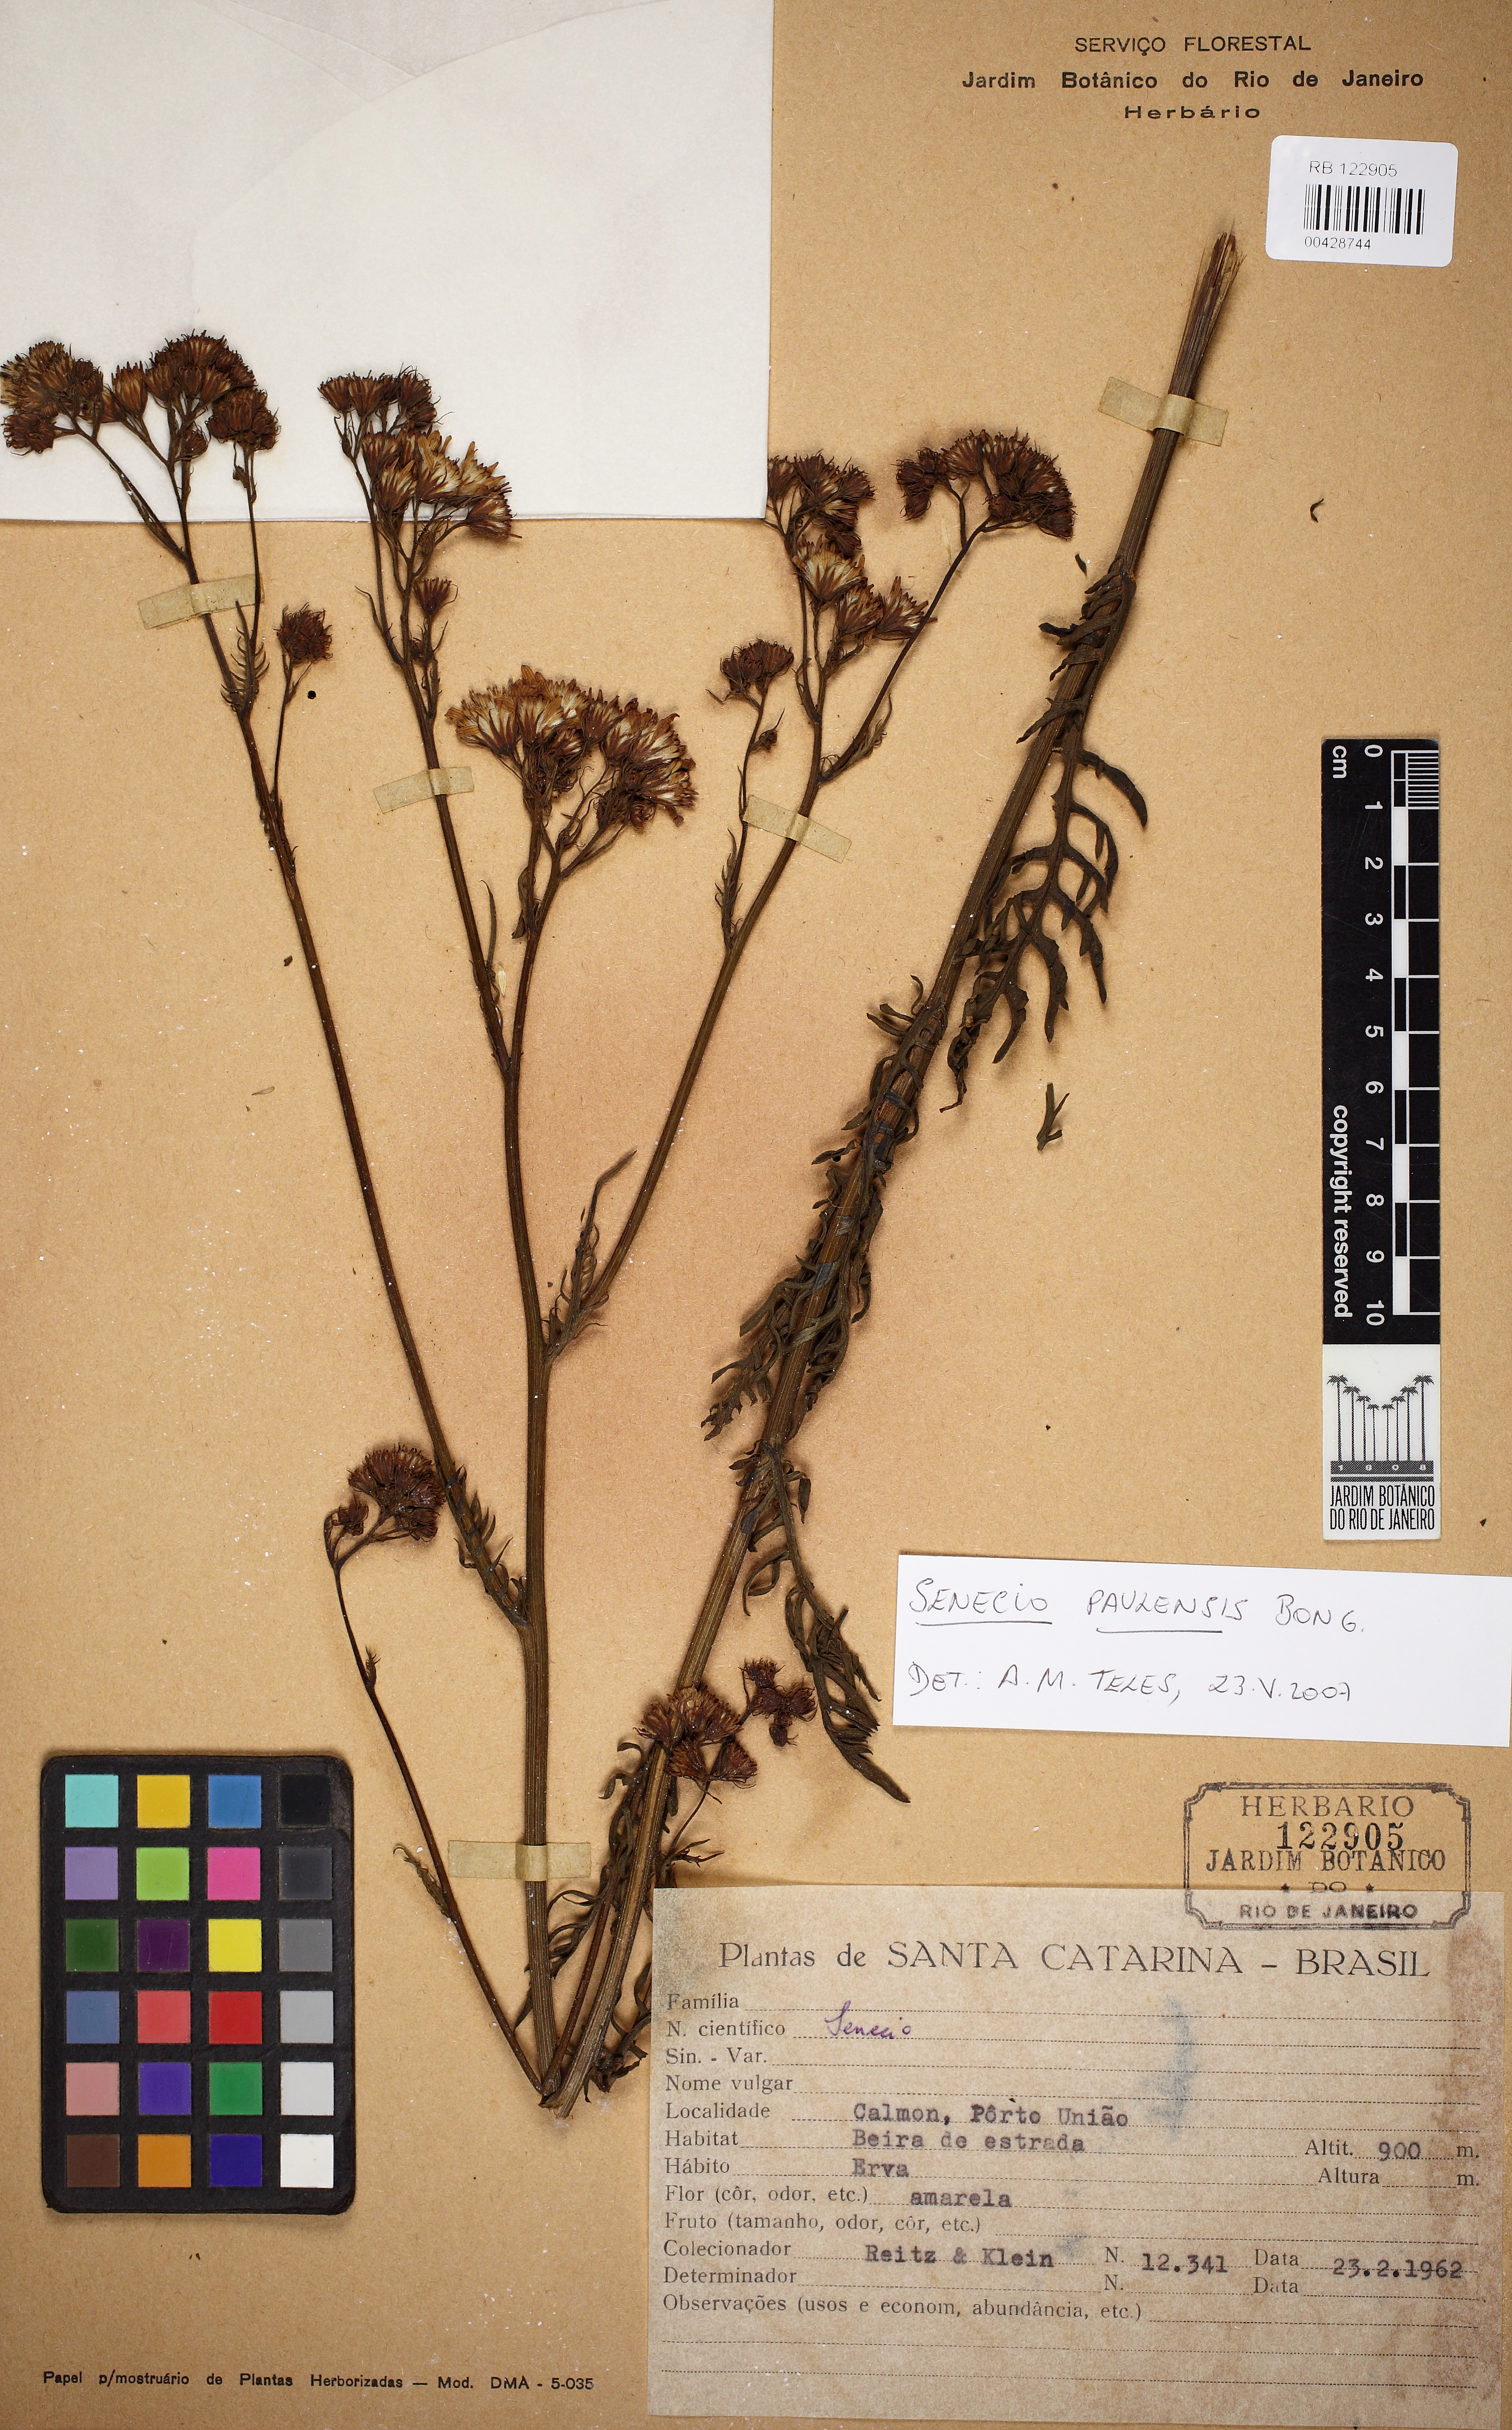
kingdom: Plantae
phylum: Tracheophyta
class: Magnoliopsida
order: Asterales
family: Asteraceae
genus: Senecio
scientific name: Senecio paulensis
